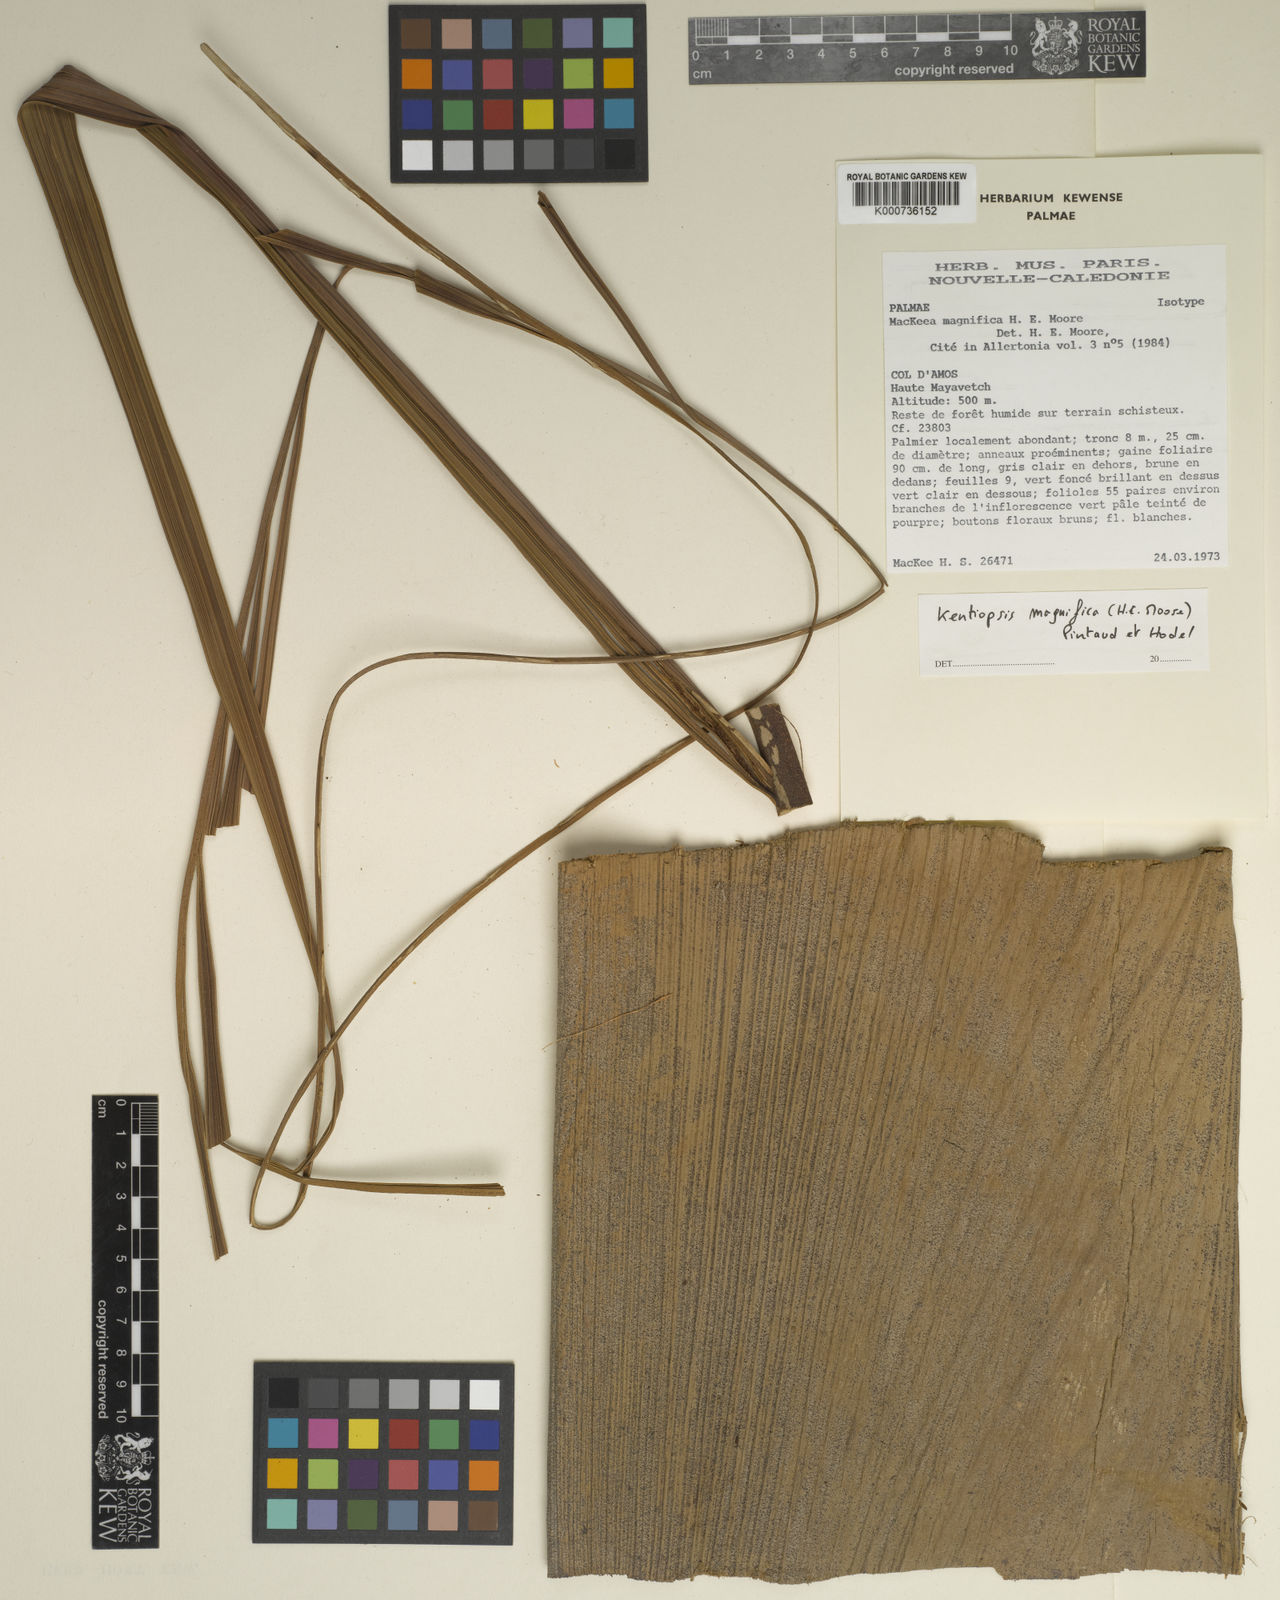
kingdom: Plantae
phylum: Tracheophyta
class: Liliopsida
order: Arecales
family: Arecaceae
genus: Chambeyronia
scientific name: Chambeyronia magnifica
